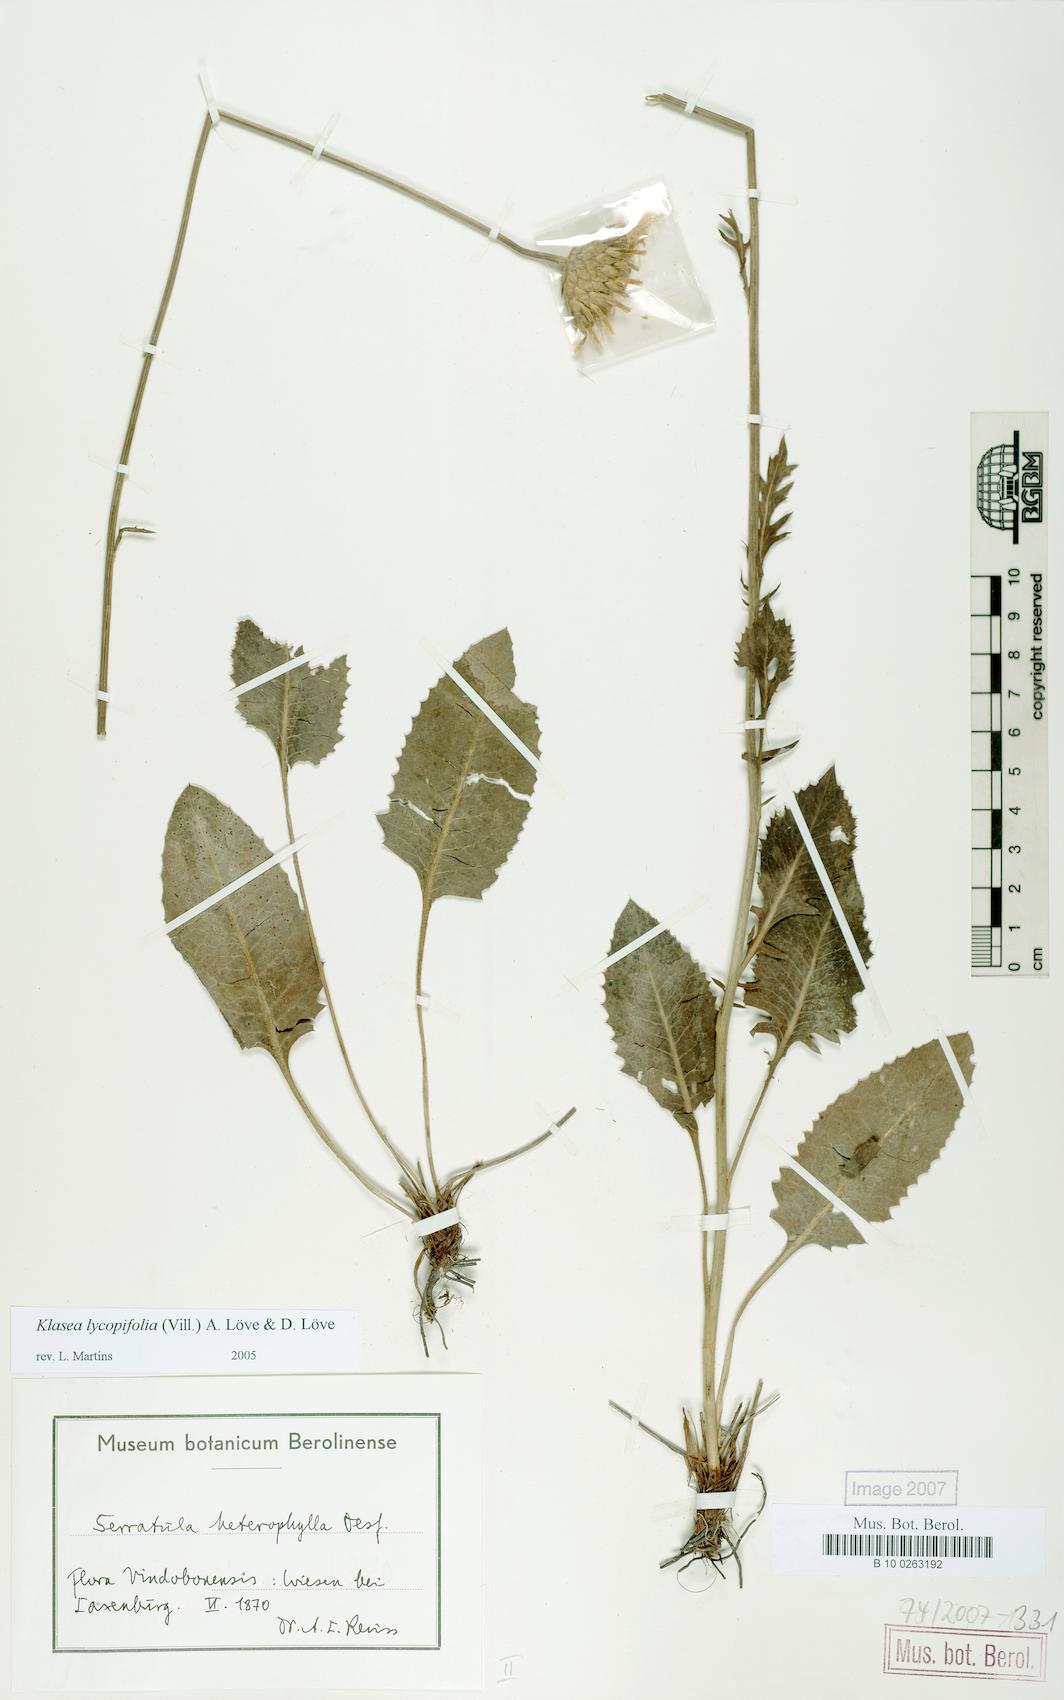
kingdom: Plantae
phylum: Tracheophyta
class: Magnoliopsida
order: Asterales
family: Asteraceae
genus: Klasea
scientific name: Klasea lycopifolia
